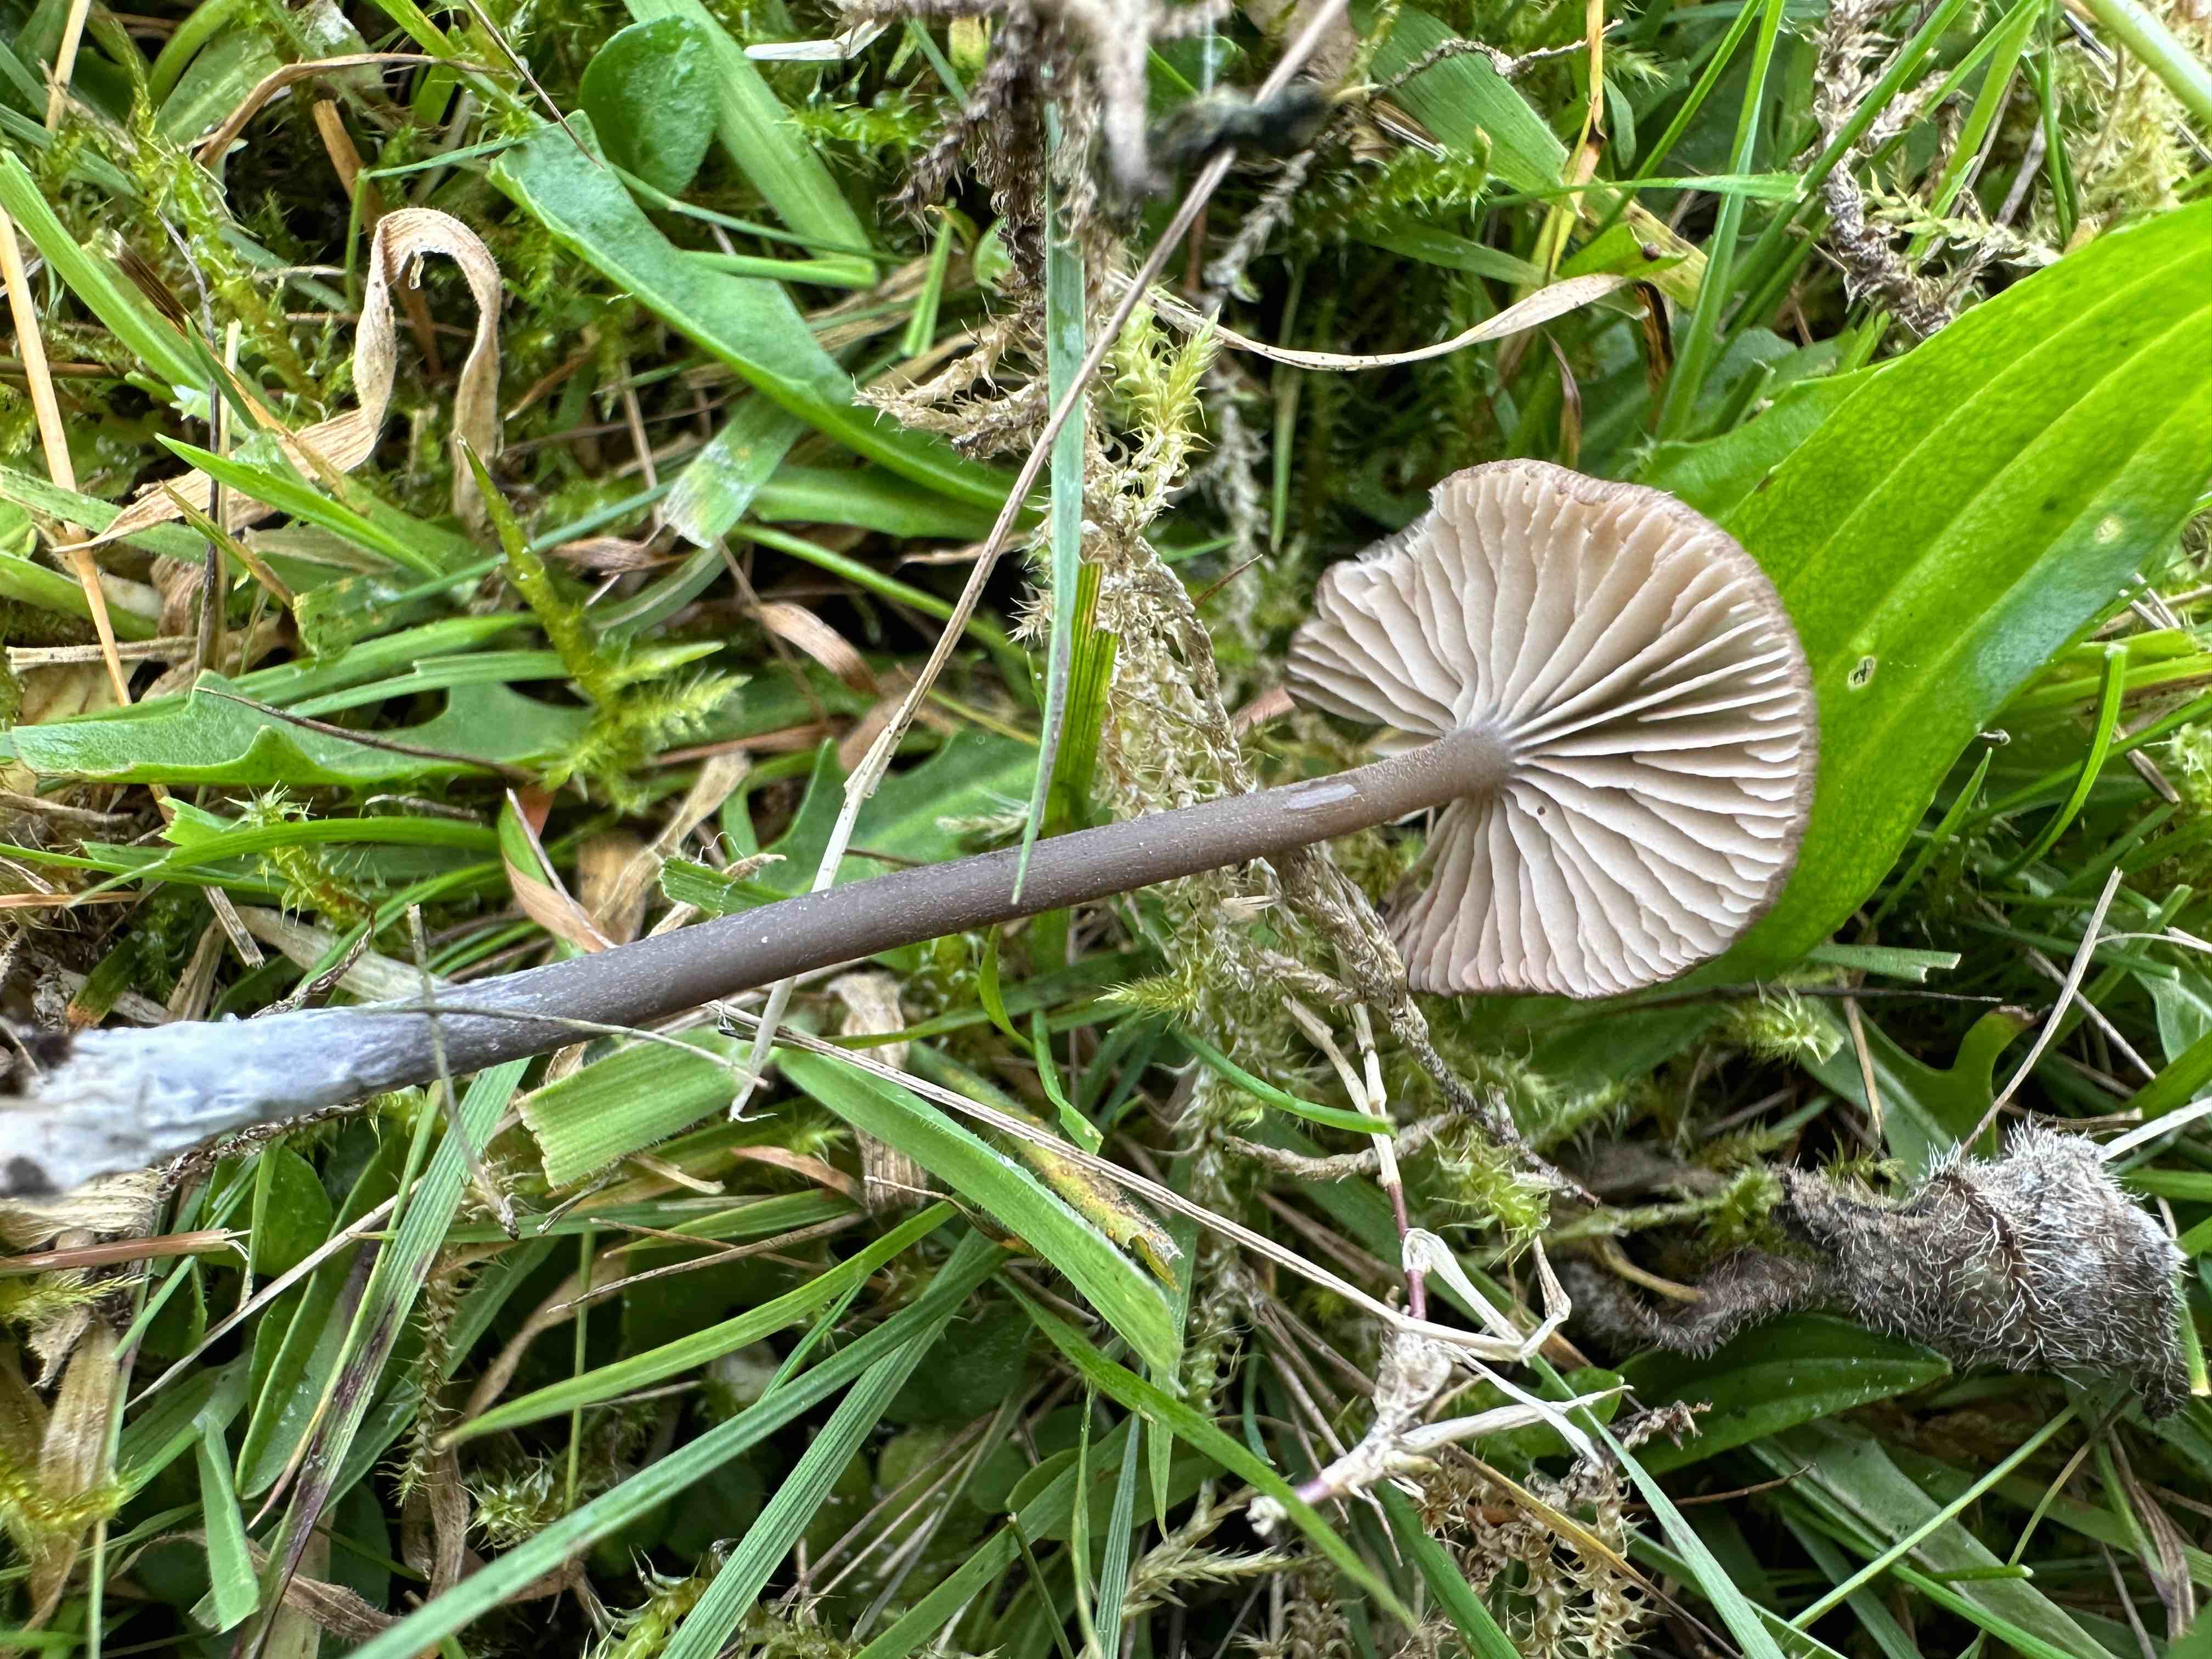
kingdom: Fungi
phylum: Basidiomycota
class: Agaricomycetes
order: Agaricales
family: Entolomataceae
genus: Entoloma
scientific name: Entoloma asprellum
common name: ru rødblad
